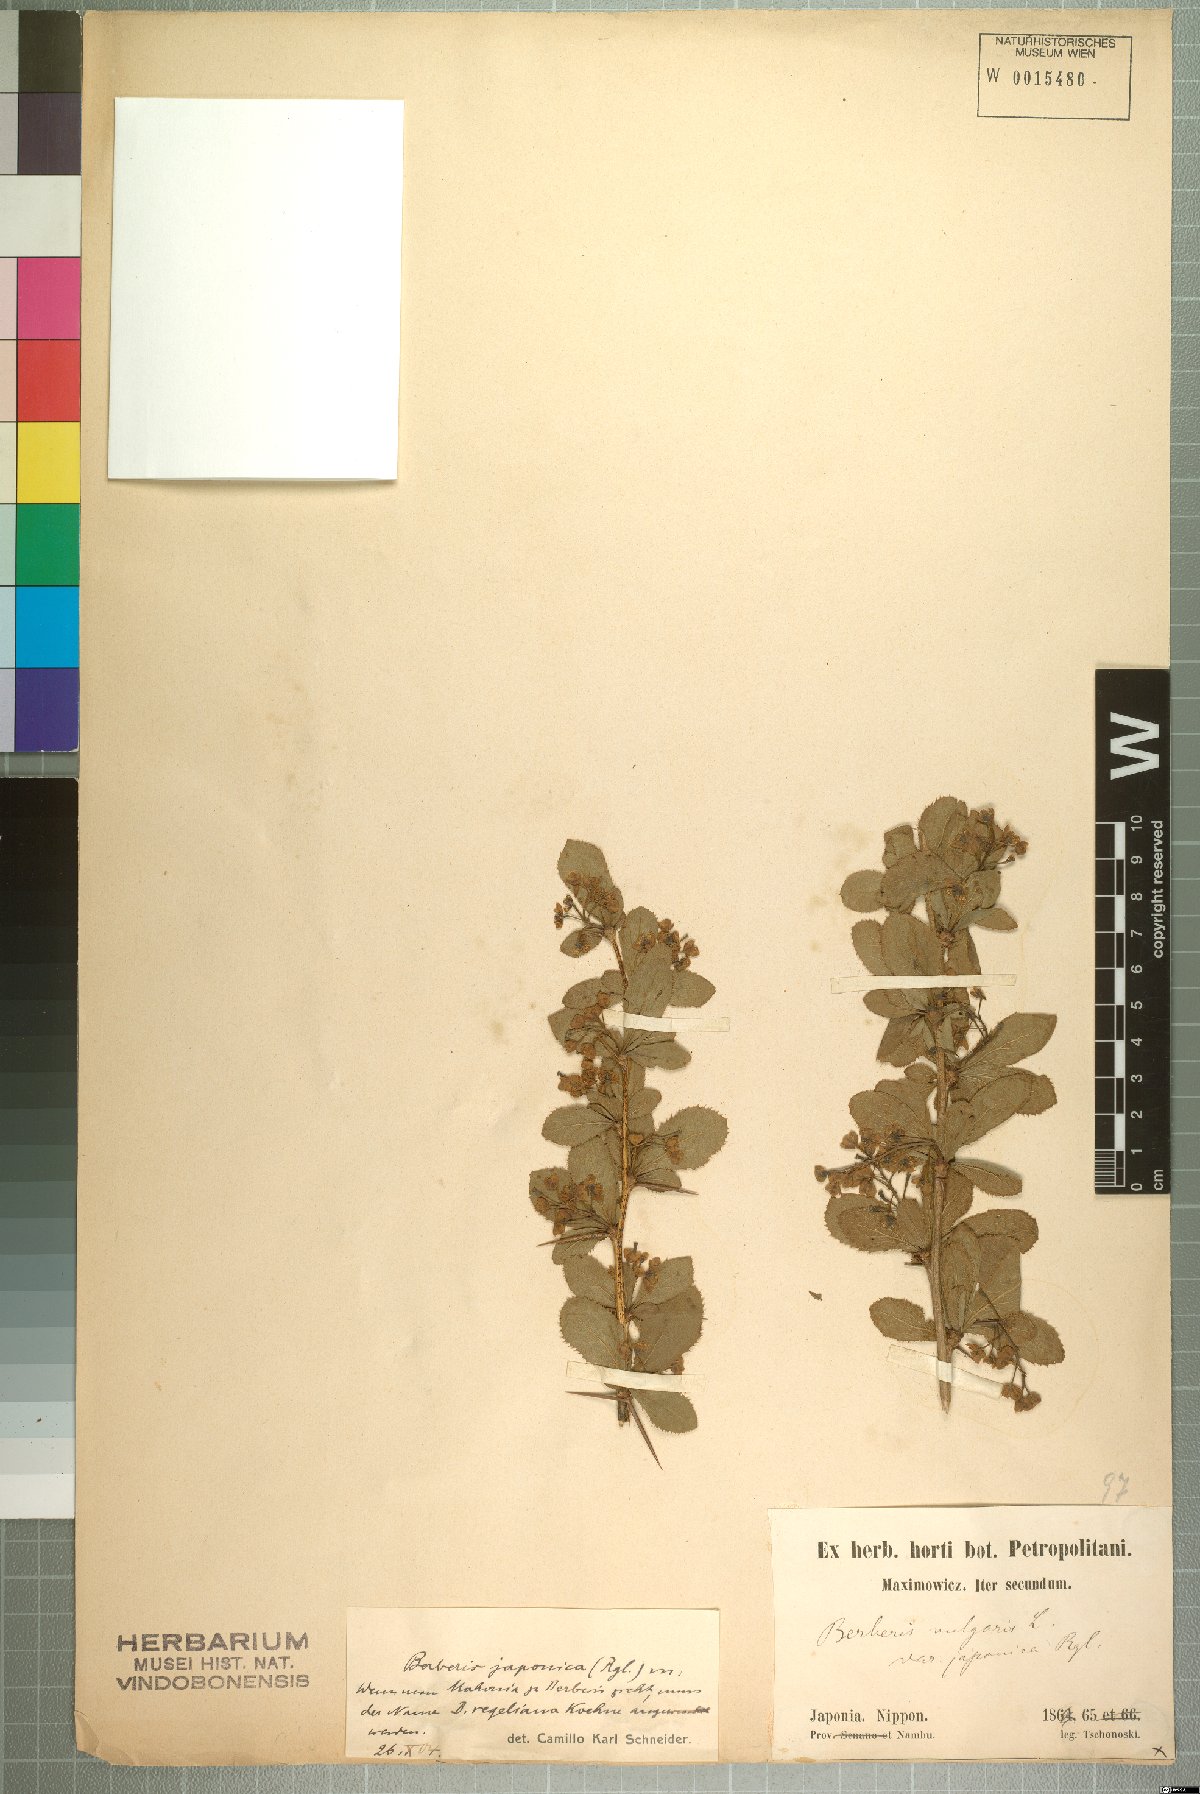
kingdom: Plantae
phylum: Tracheophyta
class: Magnoliopsida
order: Ranunculales
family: Berberidaceae
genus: Berberis
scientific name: Berberis amurensis
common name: Amur barberry
